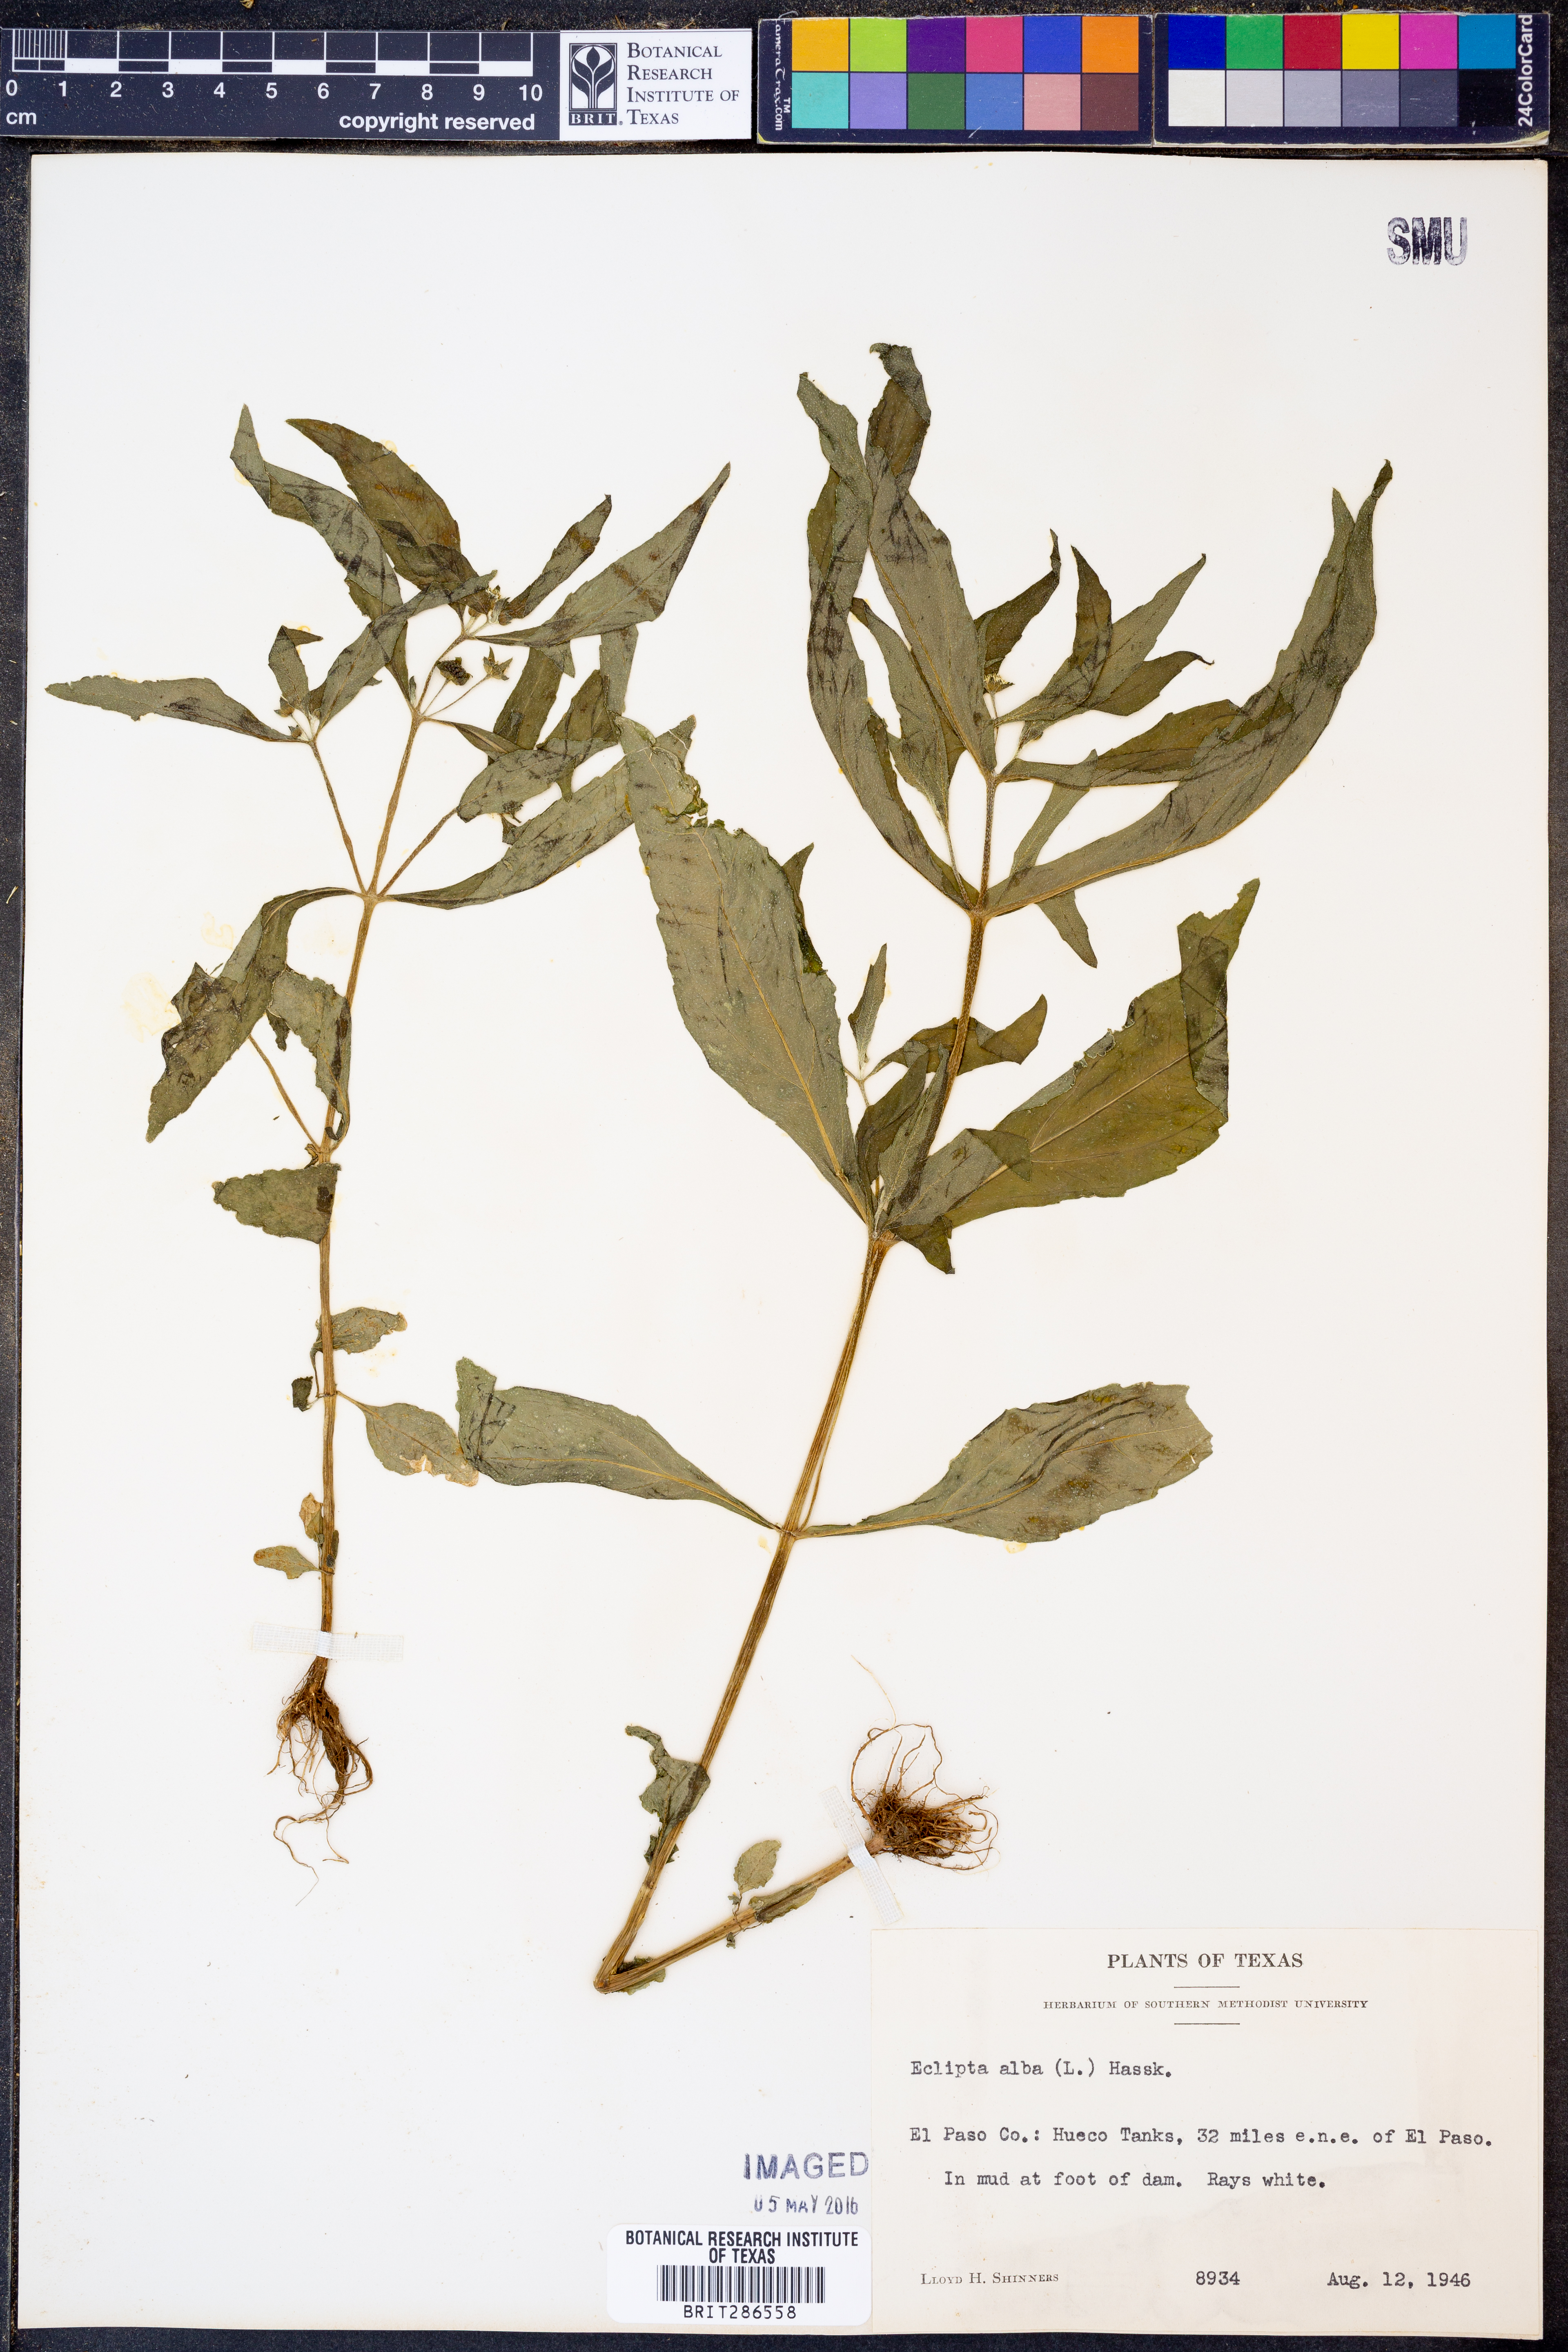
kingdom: Plantae
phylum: Tracheophyta
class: Magnoliopsida
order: Asterales
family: Asteraceae
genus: Eclipta
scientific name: Eclipta alba
